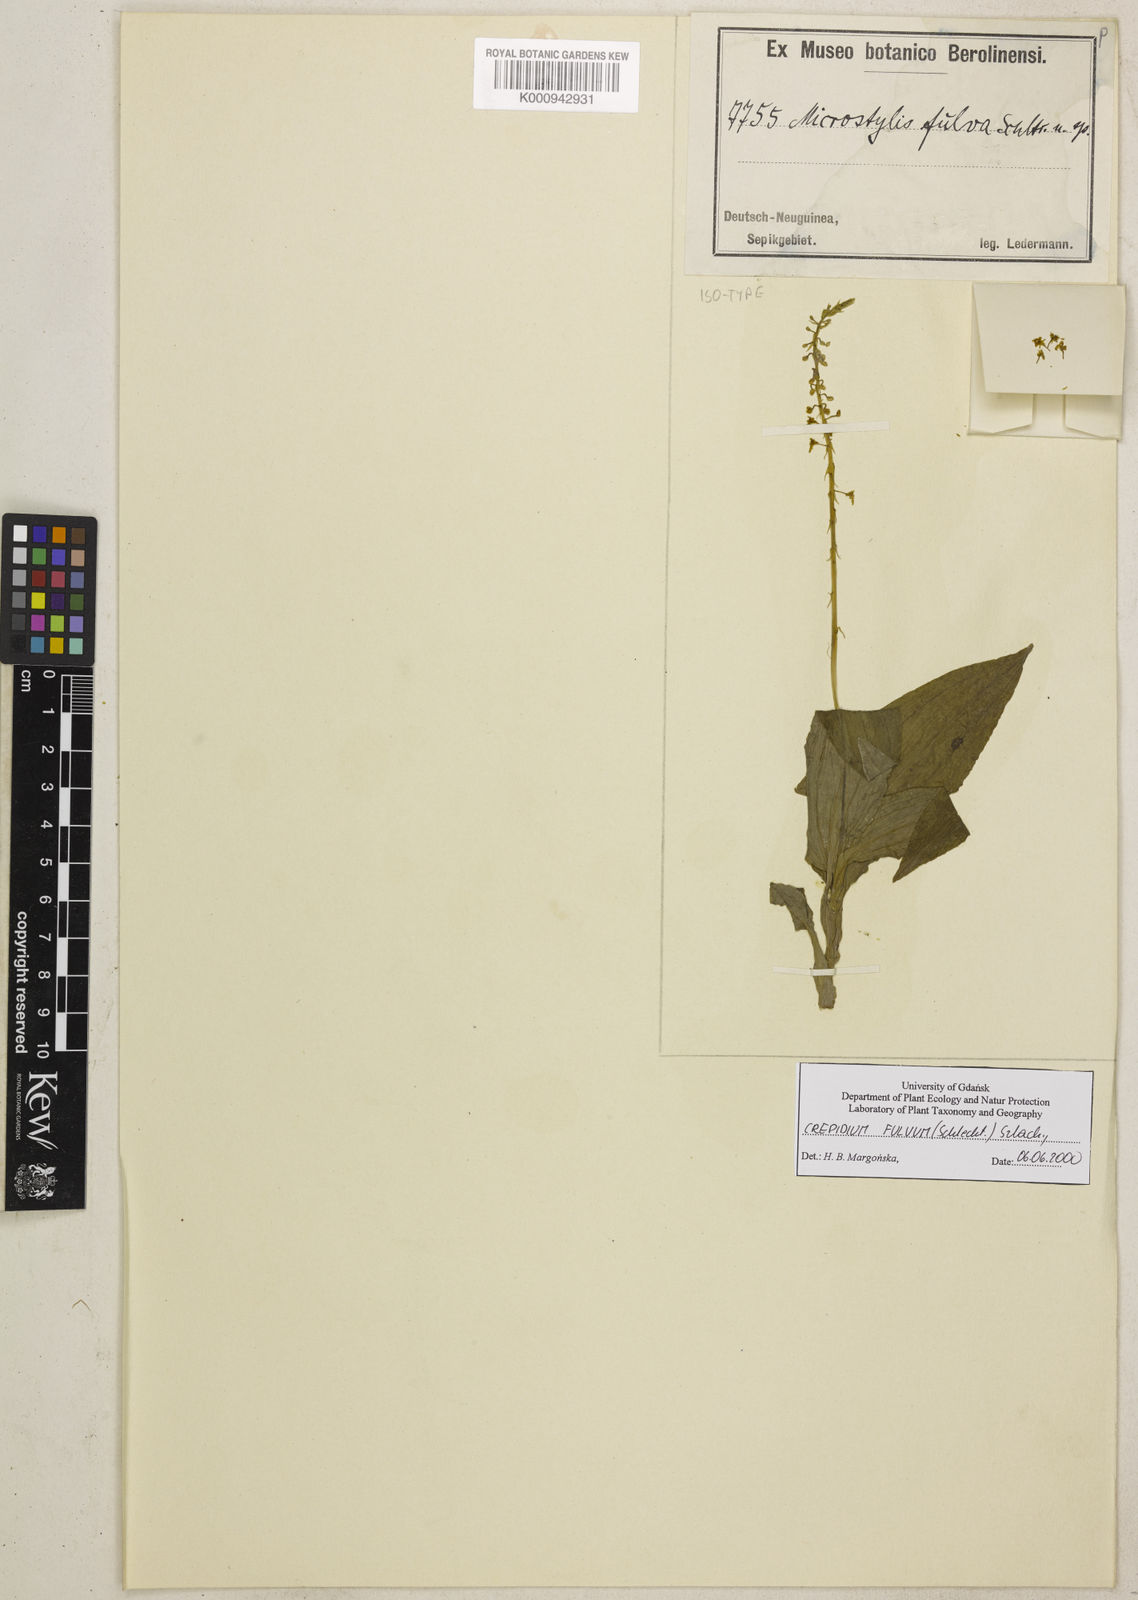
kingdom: Plantae
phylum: Tracheophyta
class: Liliopsida
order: Asparagales
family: Orchidaceae
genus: Crepidium
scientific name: Crepidium fulvum
